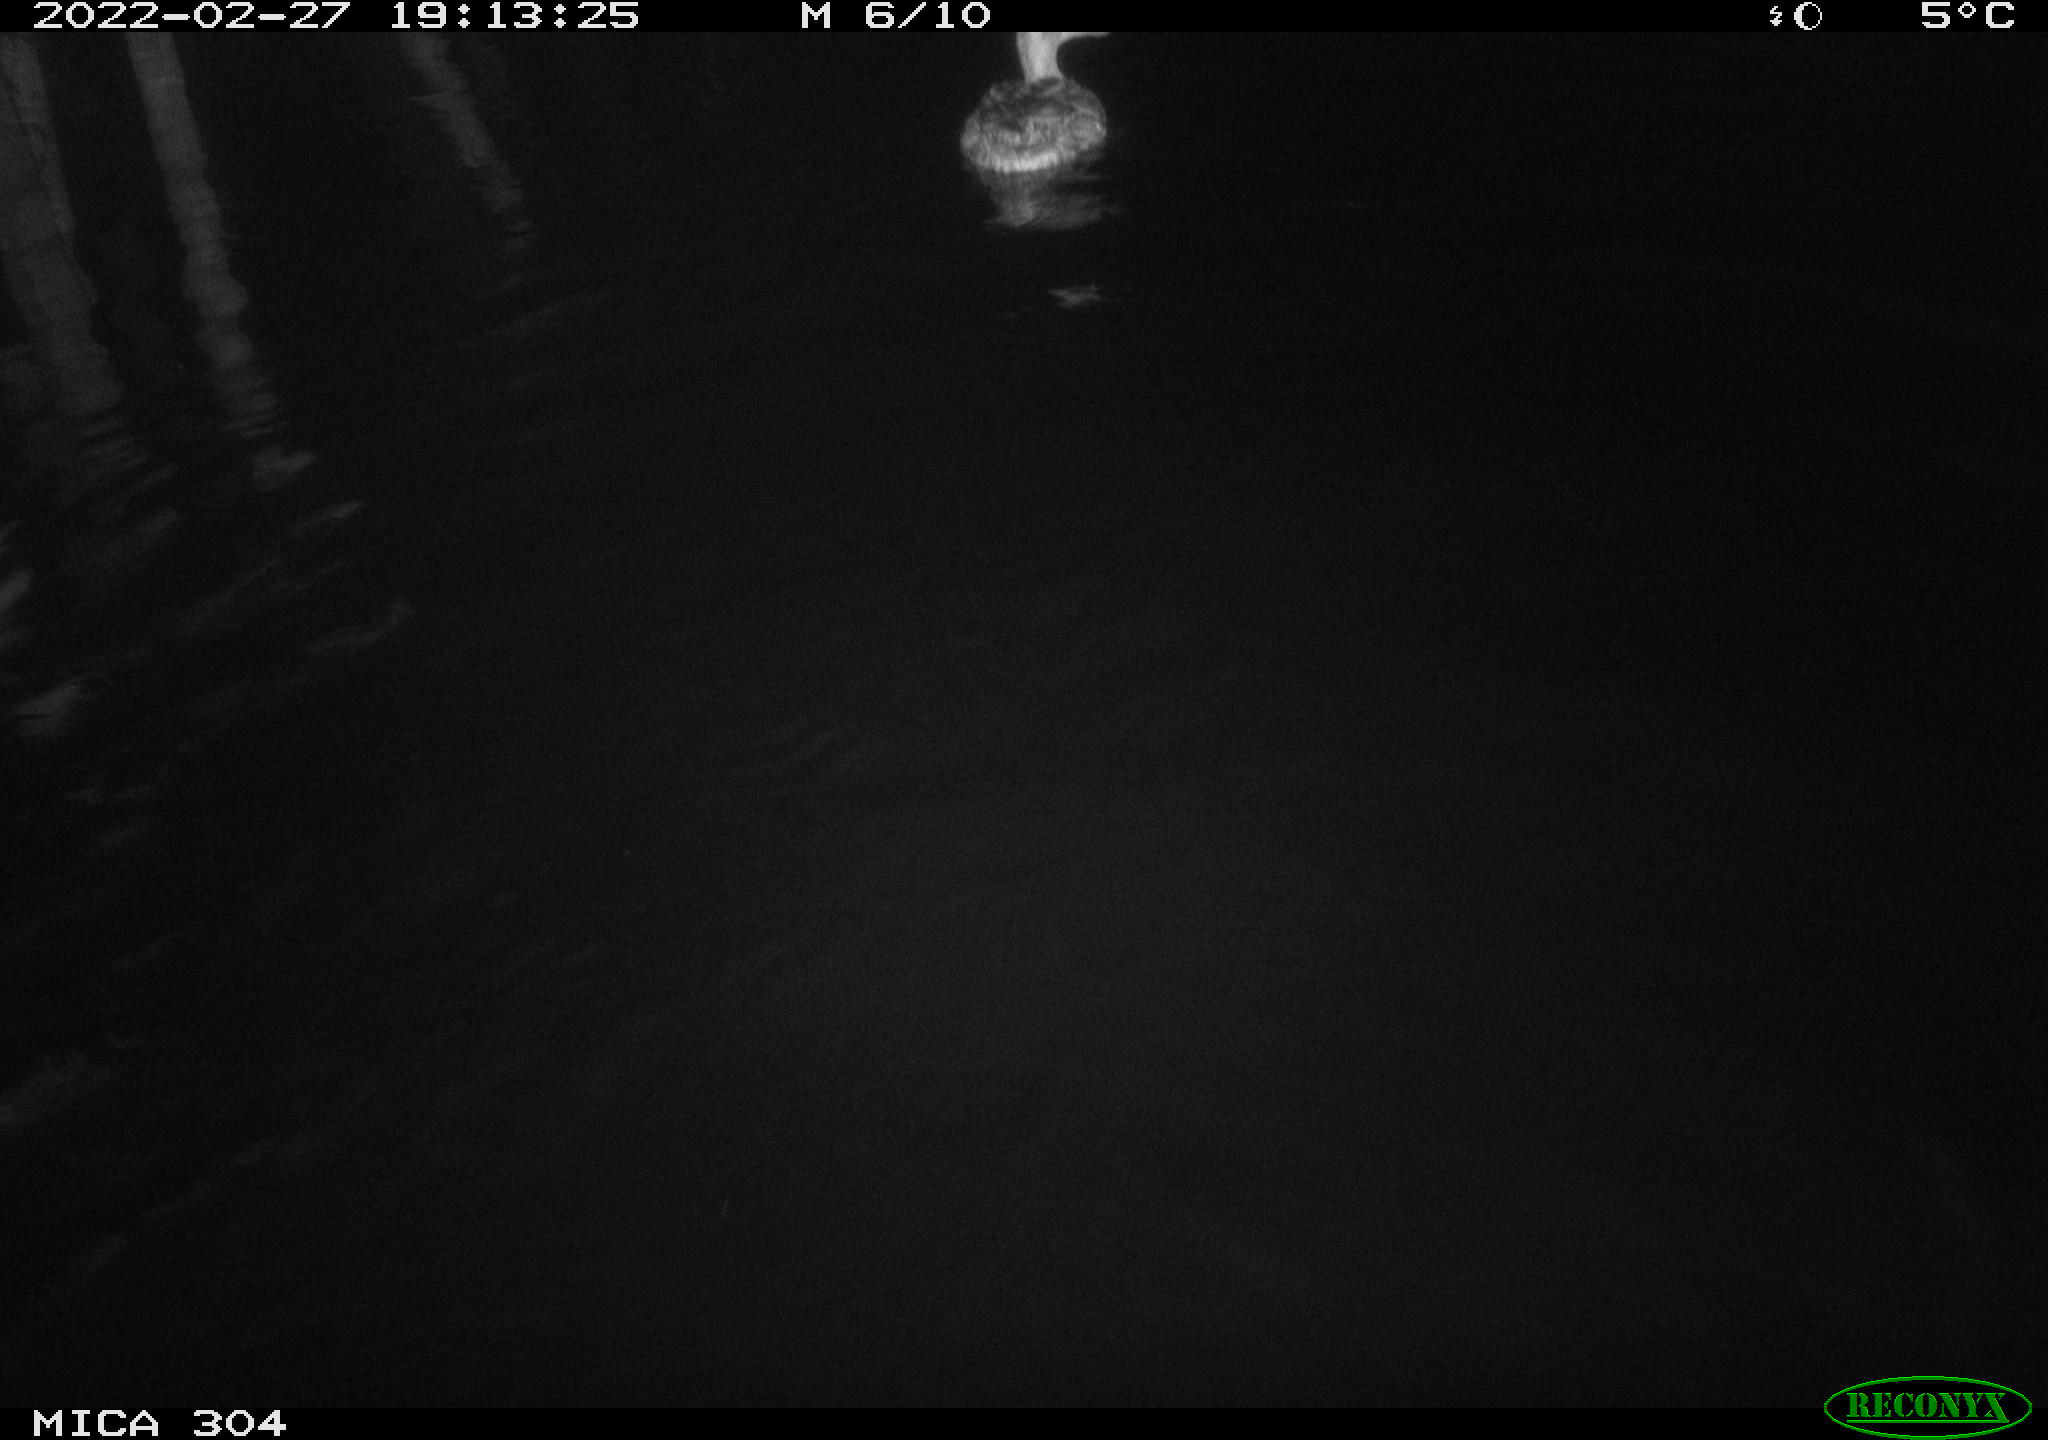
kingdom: Animalia
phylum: Chordata
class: Aves
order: Anseriformes
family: Anatidae
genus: Anas
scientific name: Anas platyrhynchos
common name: Mallard
